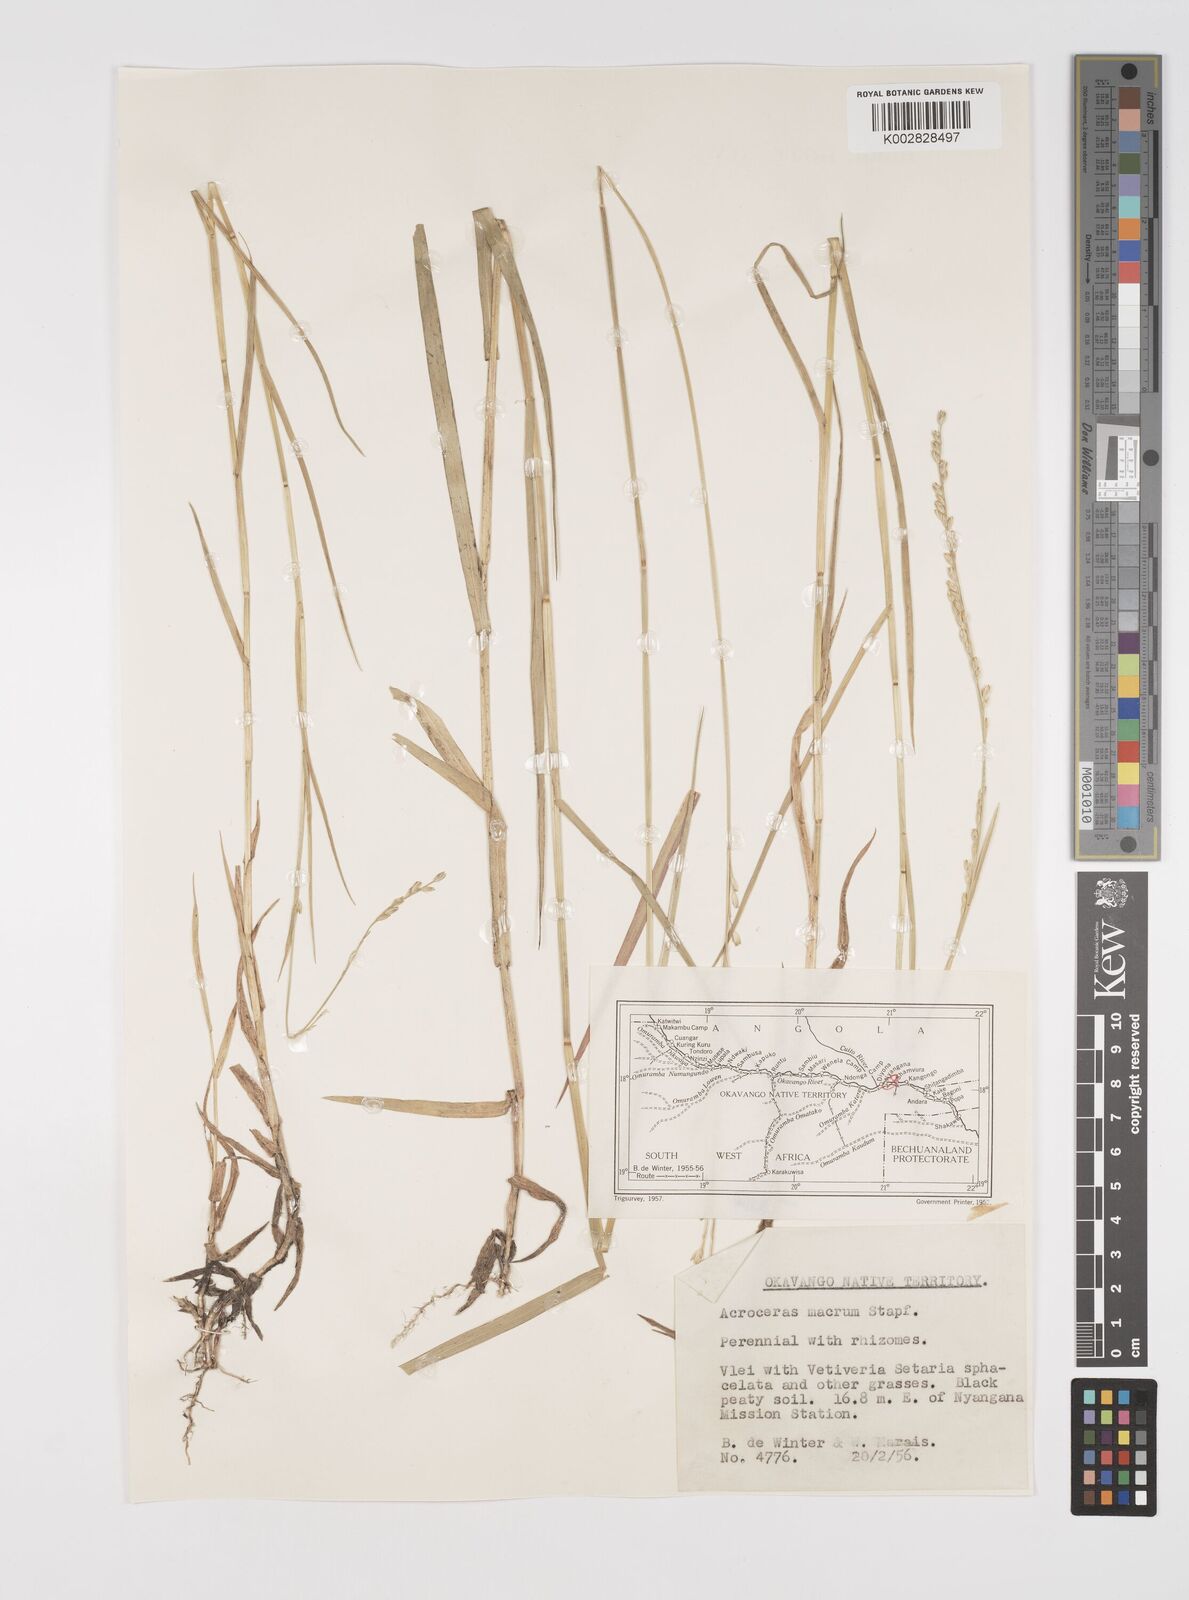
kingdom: Plantae
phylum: Tracheophyta
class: Liliopsida
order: Poales
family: Poaceae
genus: Acroceras
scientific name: Acroceras macrum
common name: Nyl grass
